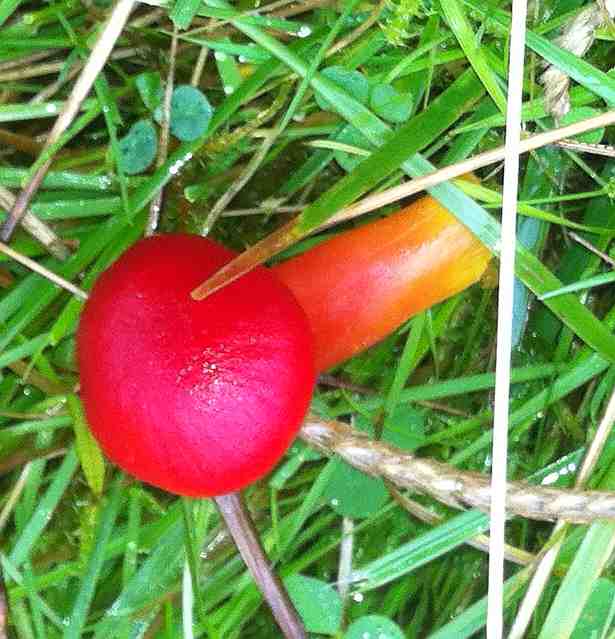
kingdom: Fungi
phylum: Basidiomycota
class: Agaricomycetes
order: Agaricales
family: Hygrophoraceae
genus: Hygrocybe
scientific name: Hygrocybe coccinea
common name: cinnober-vokshat
